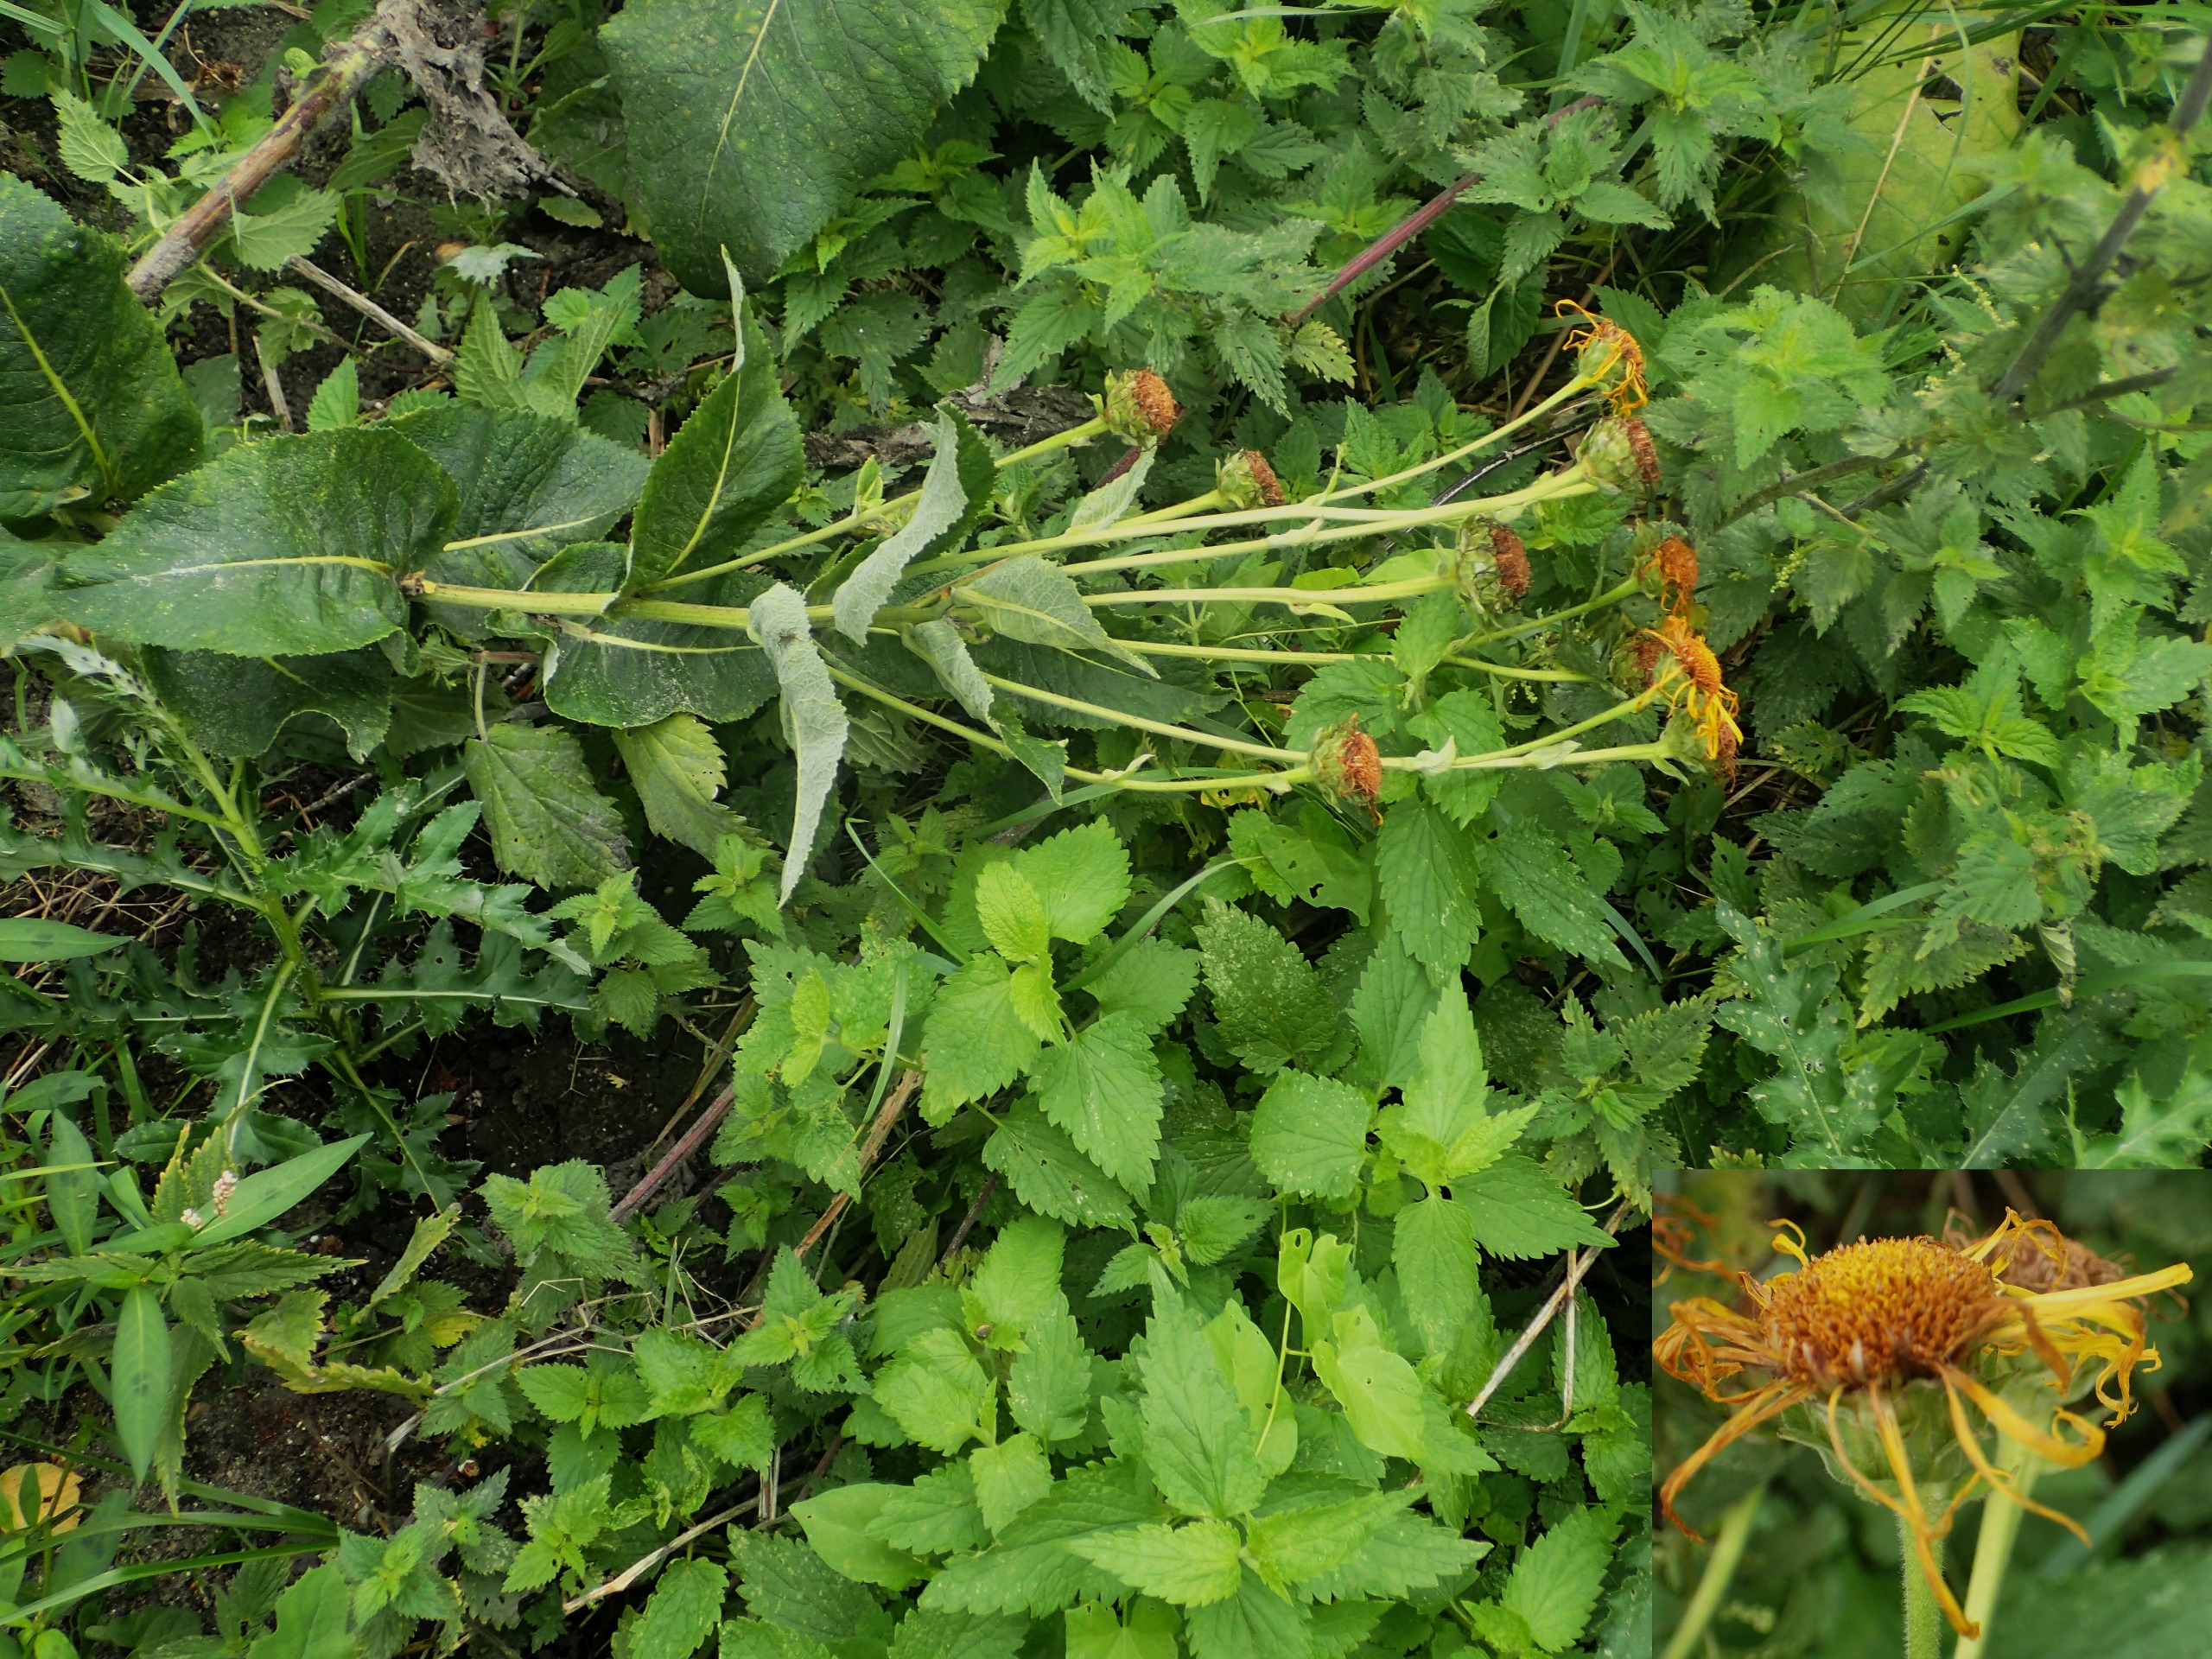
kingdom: Plantae
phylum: Tracheophyta
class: Magnoliopsida
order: Asterales
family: Asteraceae
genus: Inula
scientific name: Inula helenium
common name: Læge-alant
